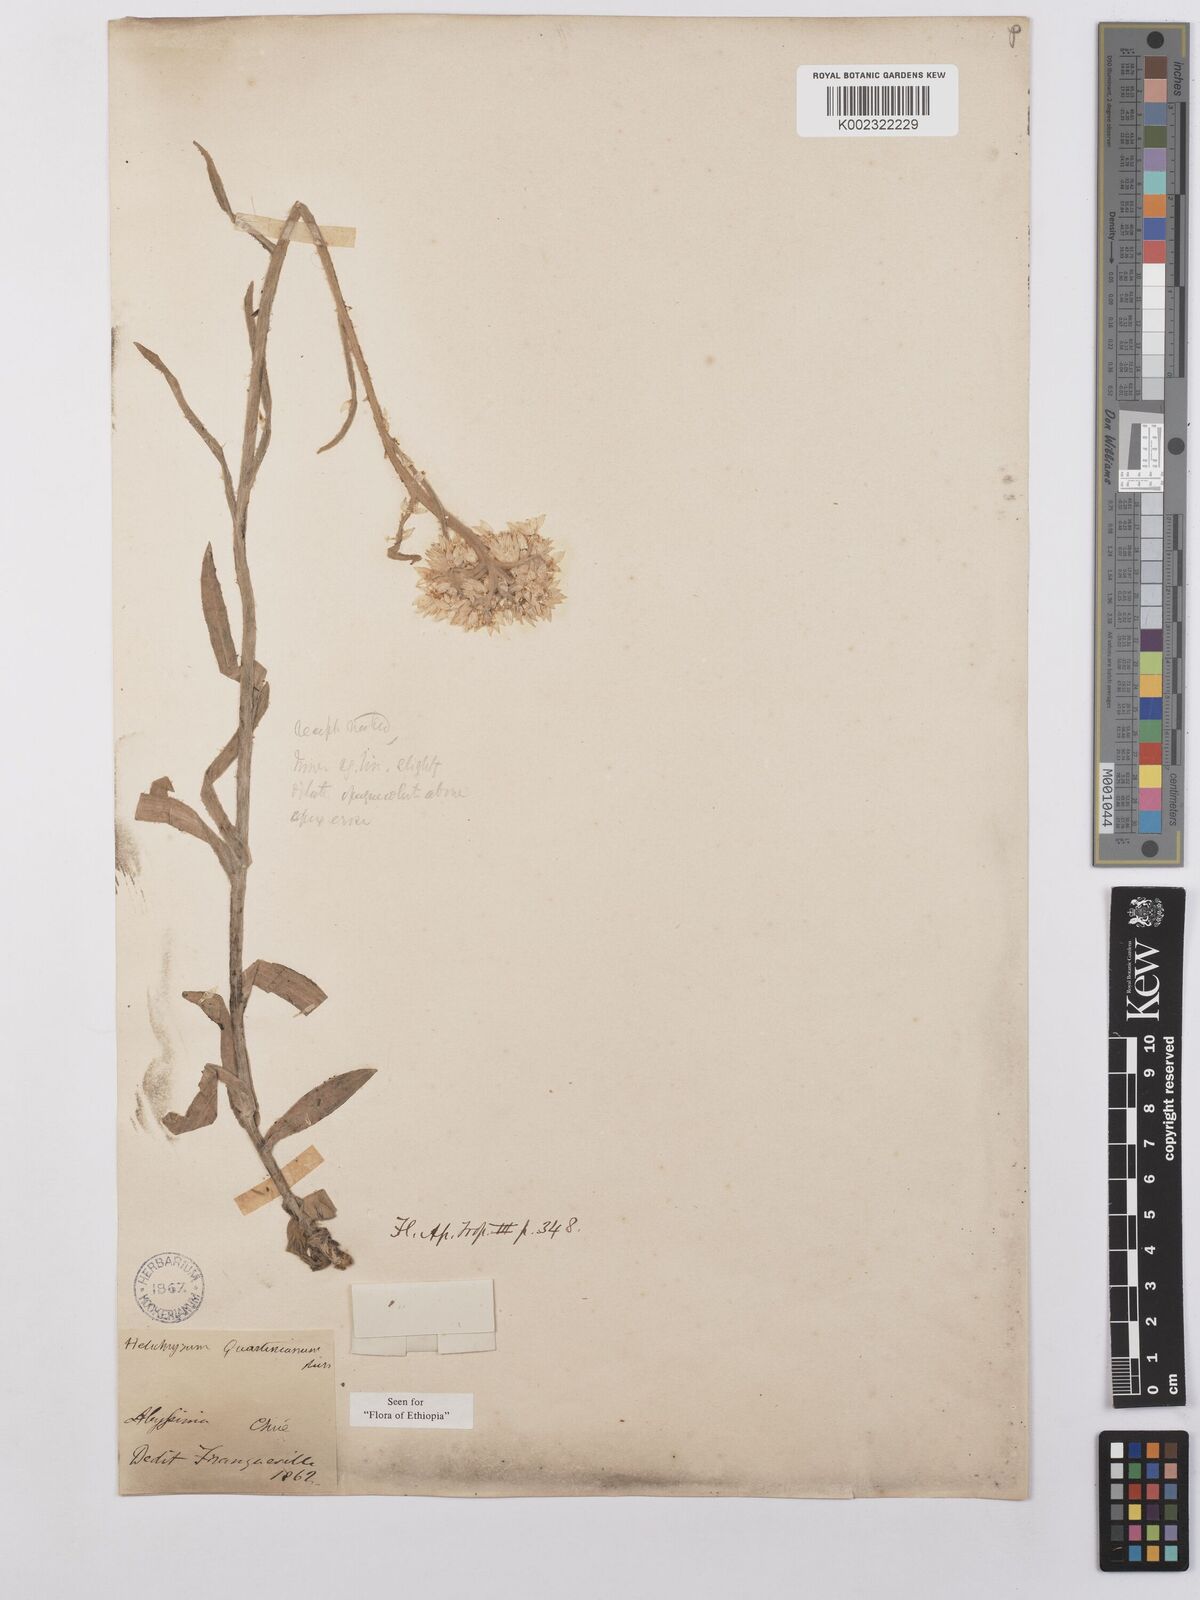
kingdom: Plantae
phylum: Tracheophyta
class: Magnoliopsida
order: Asterales
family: Asteraceae
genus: Helichrysum
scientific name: Helichrysum quartinianum
